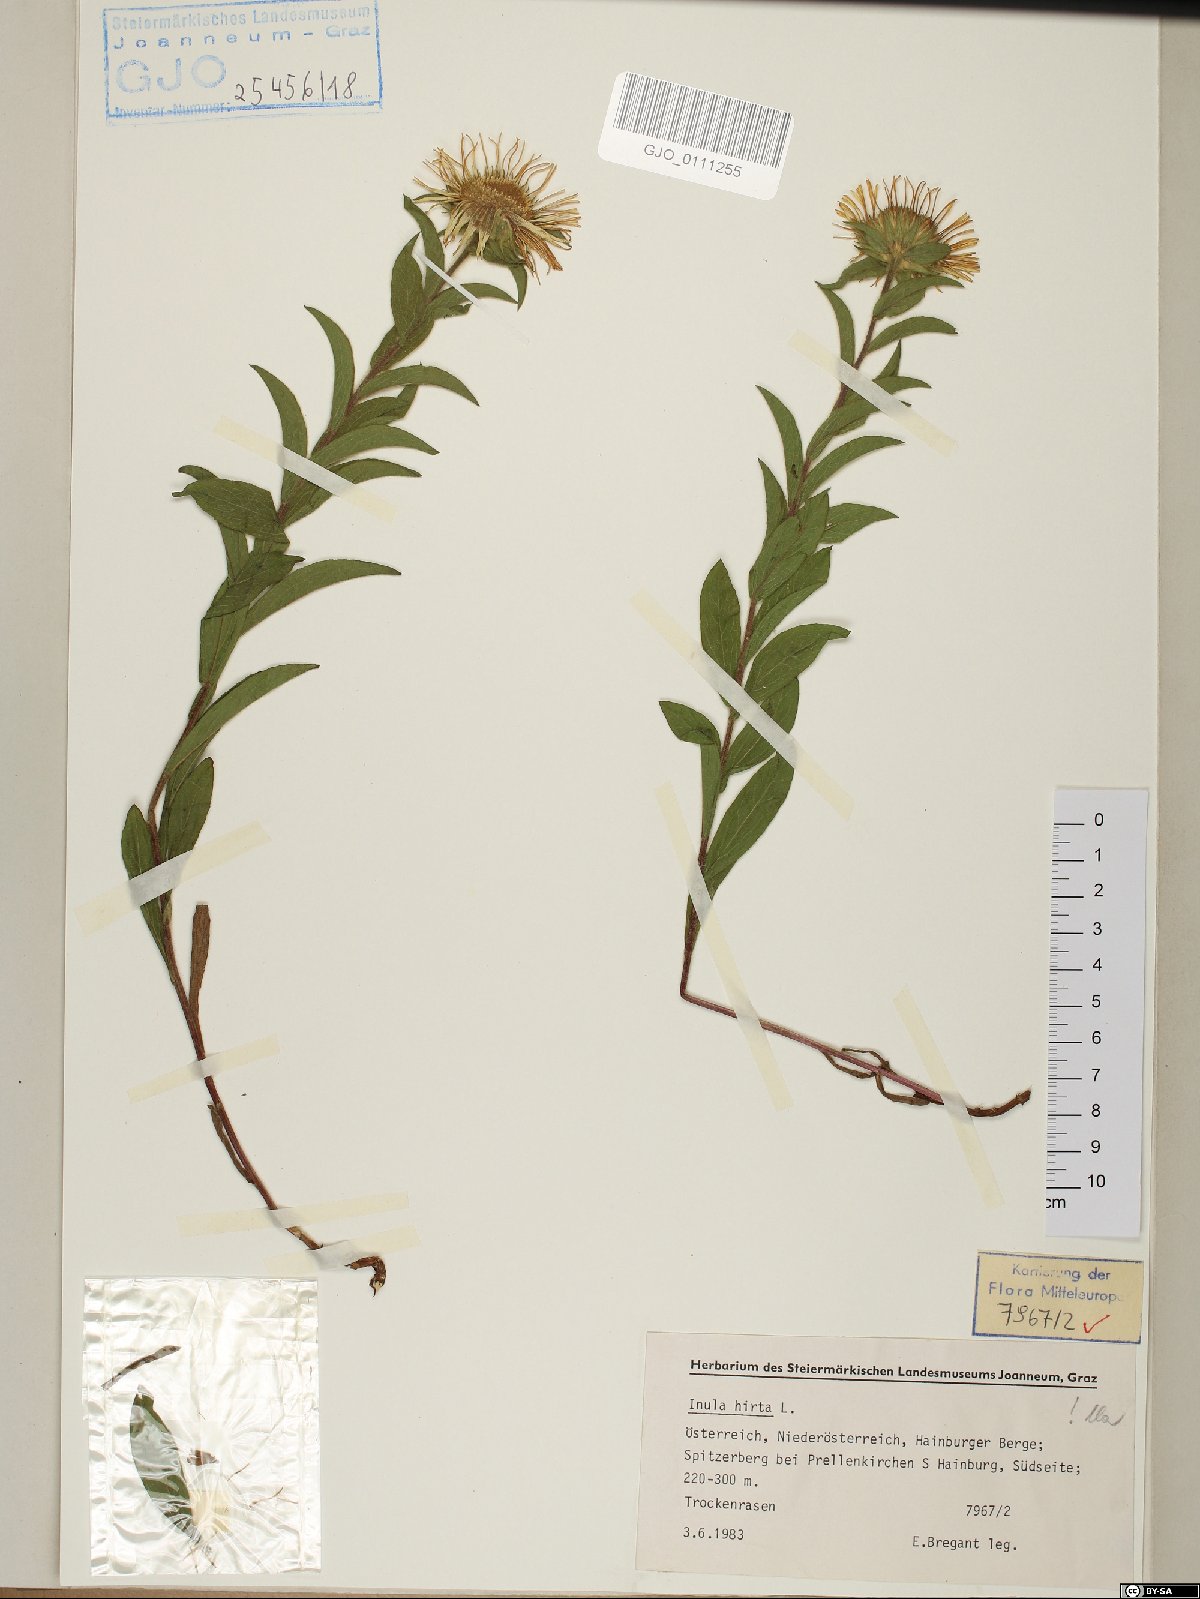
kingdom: Plantae
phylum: Tracheophyta
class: Magnoliopsida
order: Asterales
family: Asteraceae
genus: Pentanema
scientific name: Pentanema hirtum
